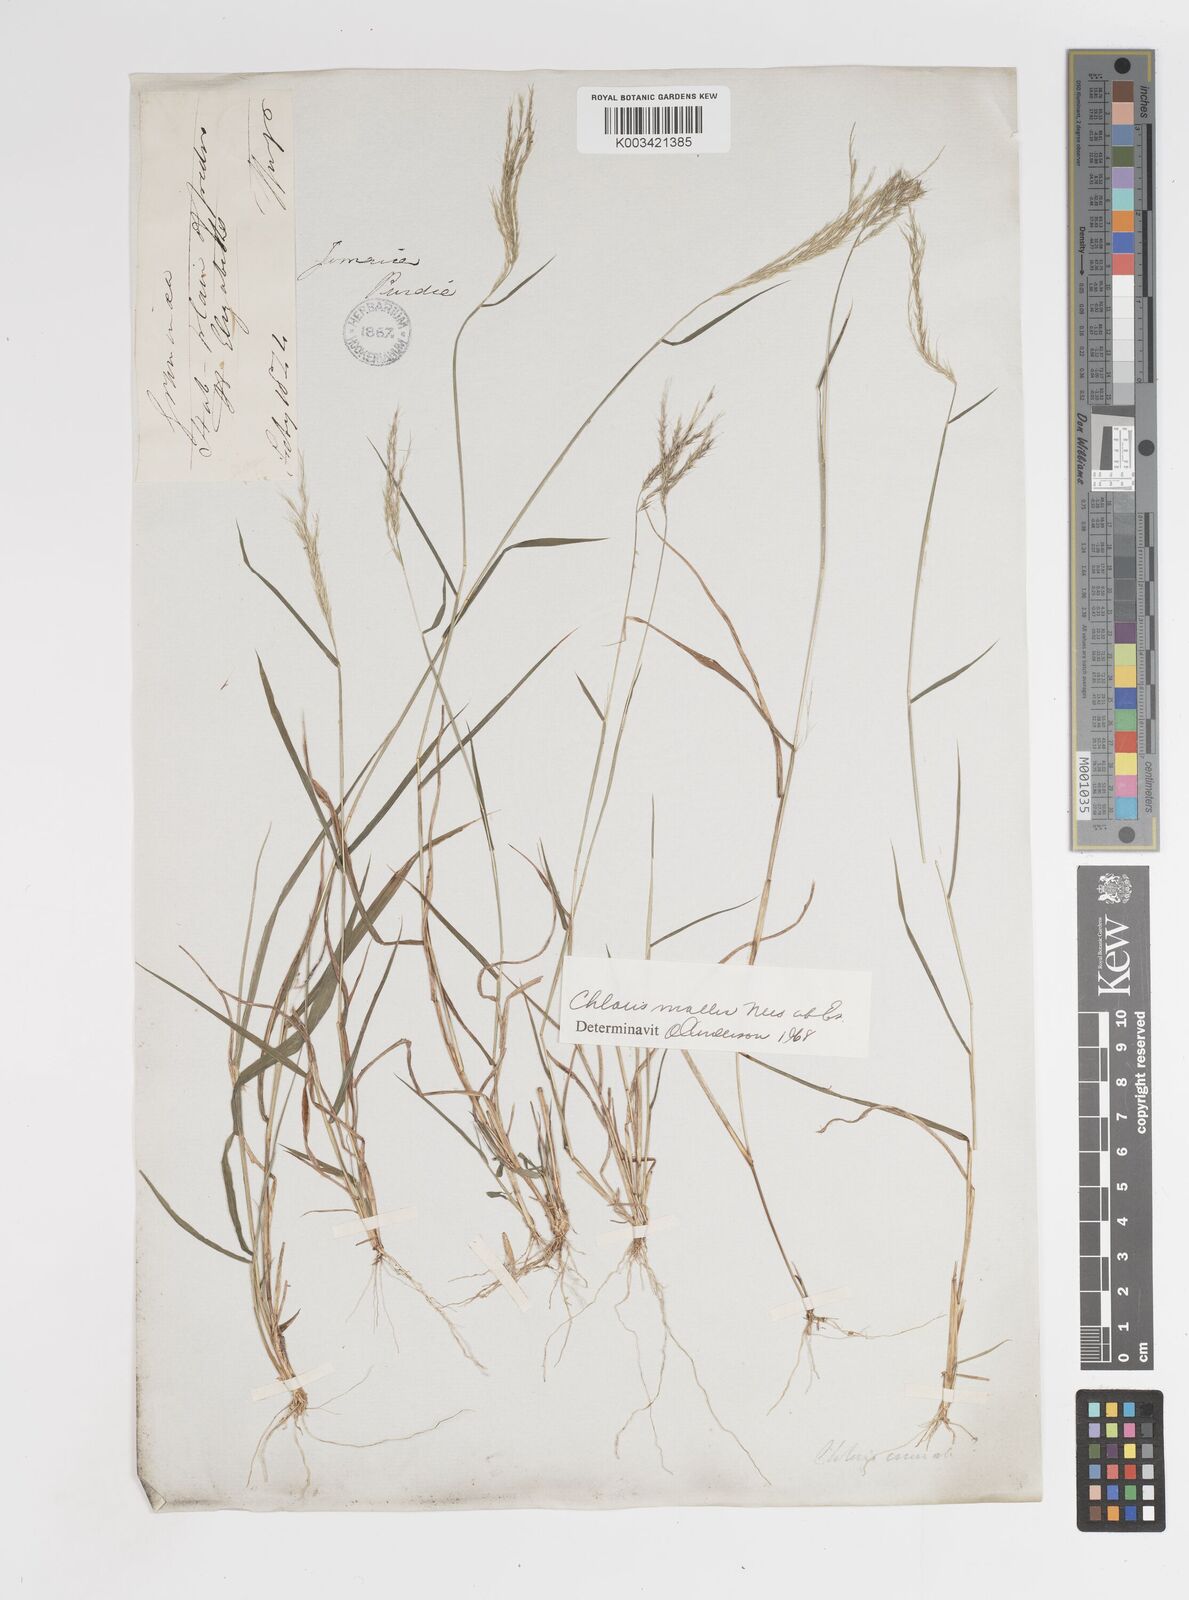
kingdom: Plantae
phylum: Tracheophyta
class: Liliopsida
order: Poales
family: Poaceae
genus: Leptochloa
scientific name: Leptochloa anisopoda
